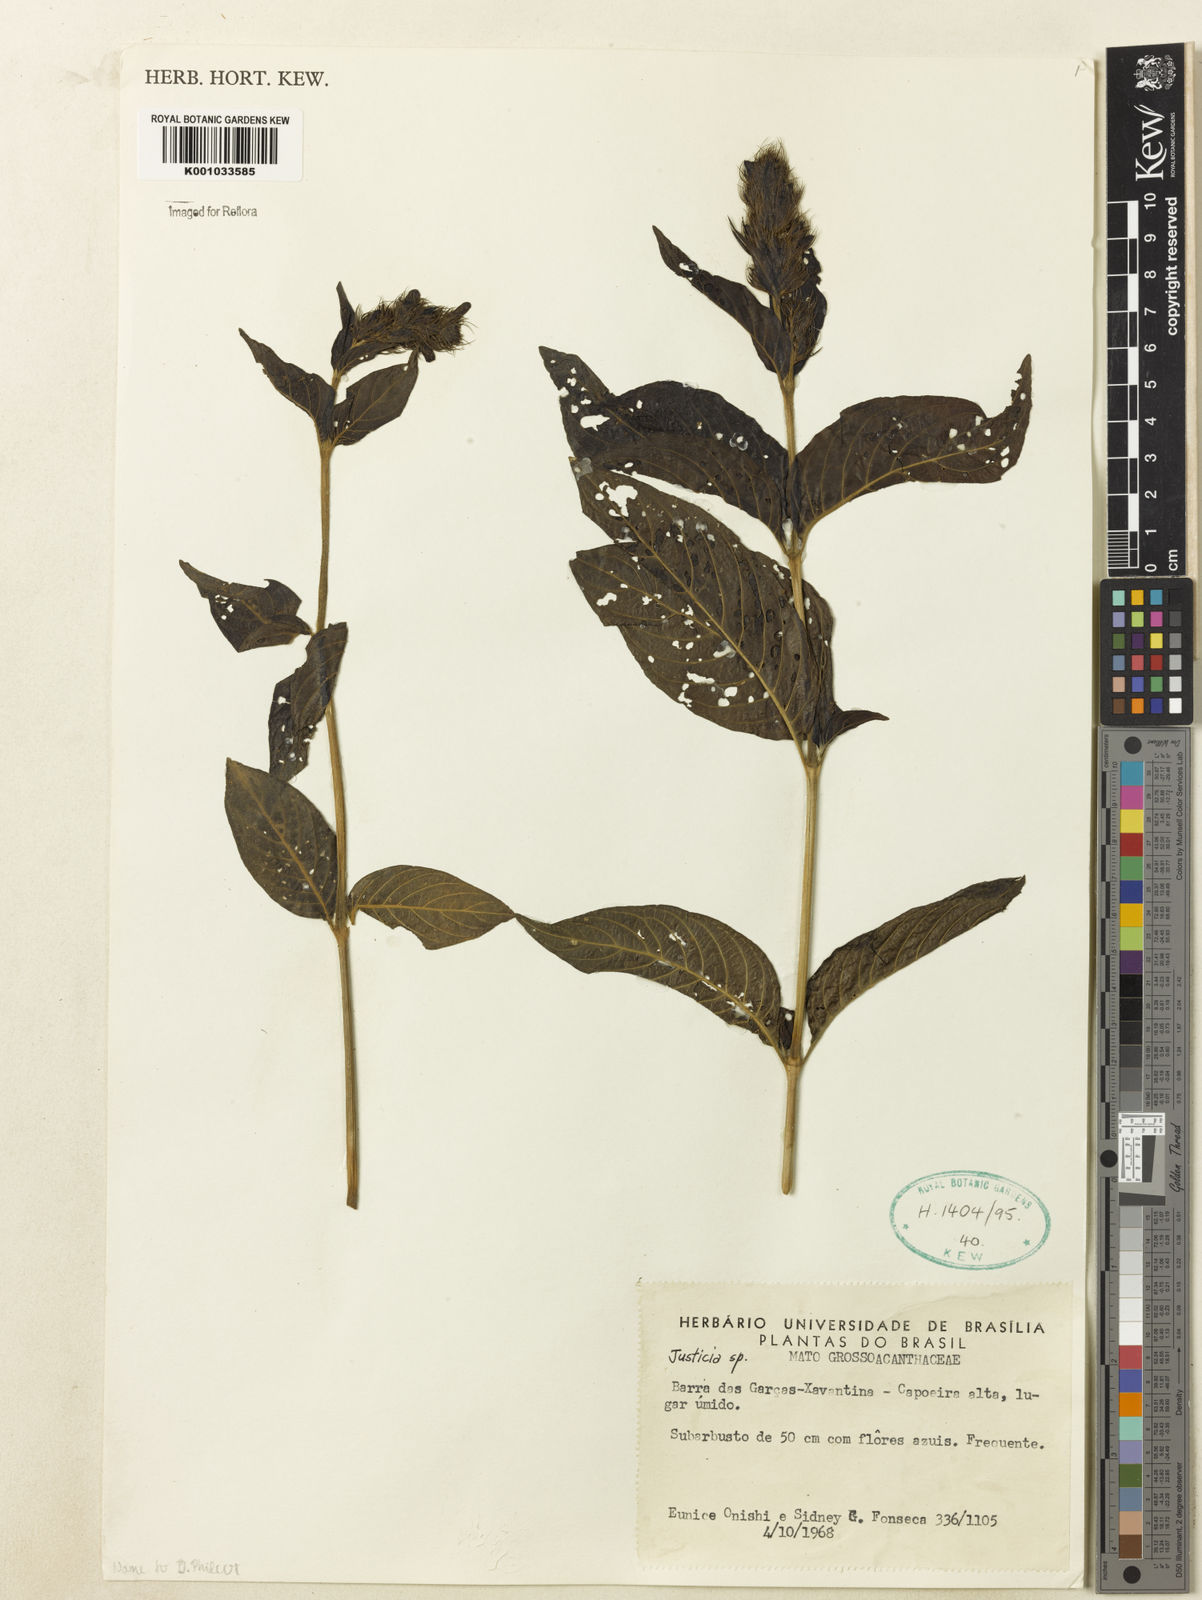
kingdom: Plantae
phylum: Tracheophyta
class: Magnoliopsida
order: Lamiales
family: Acanthaceae
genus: Justicia
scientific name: Justicia
